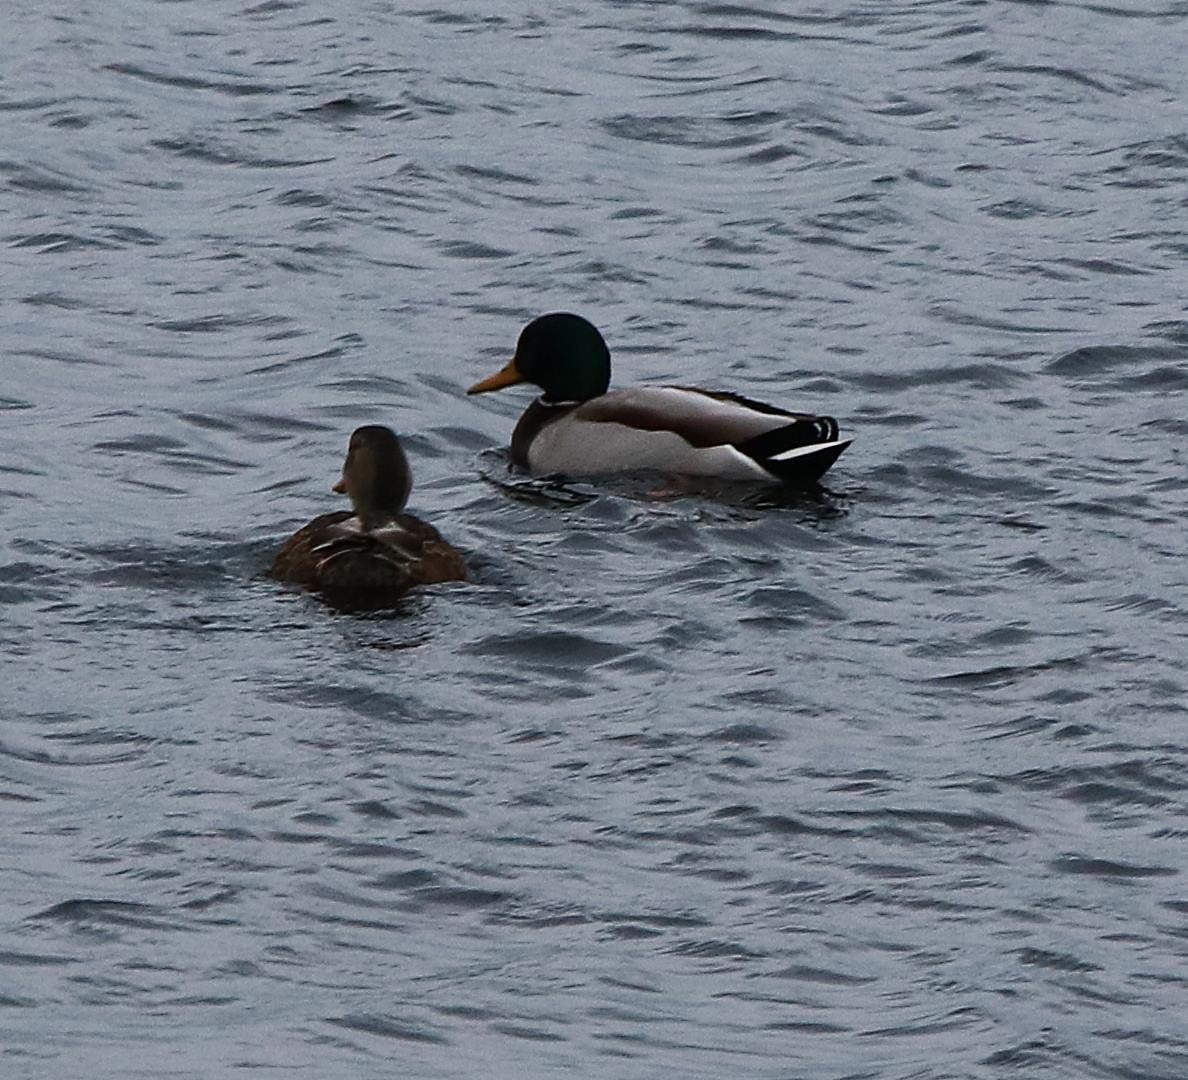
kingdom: Animalia
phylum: Chordata
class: Aves
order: Anseriformes
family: Anatidae
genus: Anas
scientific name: Anas platyrhynchos
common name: Gråand
